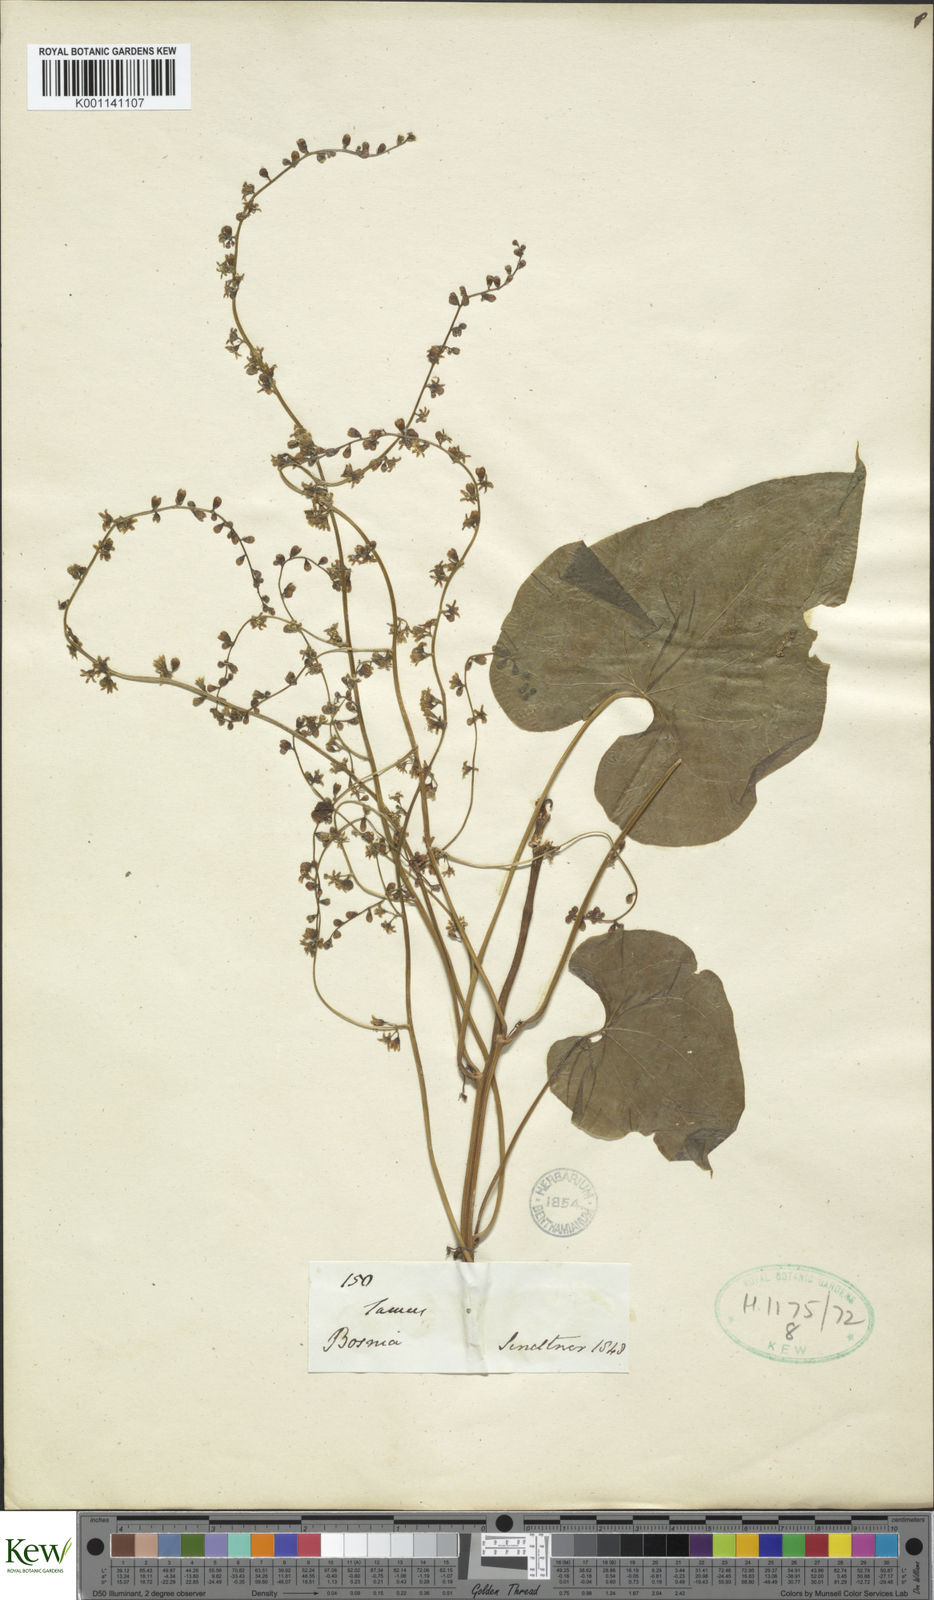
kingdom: Plantae
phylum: Tracheophyta
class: Liliopsida
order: Dioscoreales
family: Dioscoreaceae
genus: Dioscorea
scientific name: Dioscorea communis
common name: Black-bindweed
